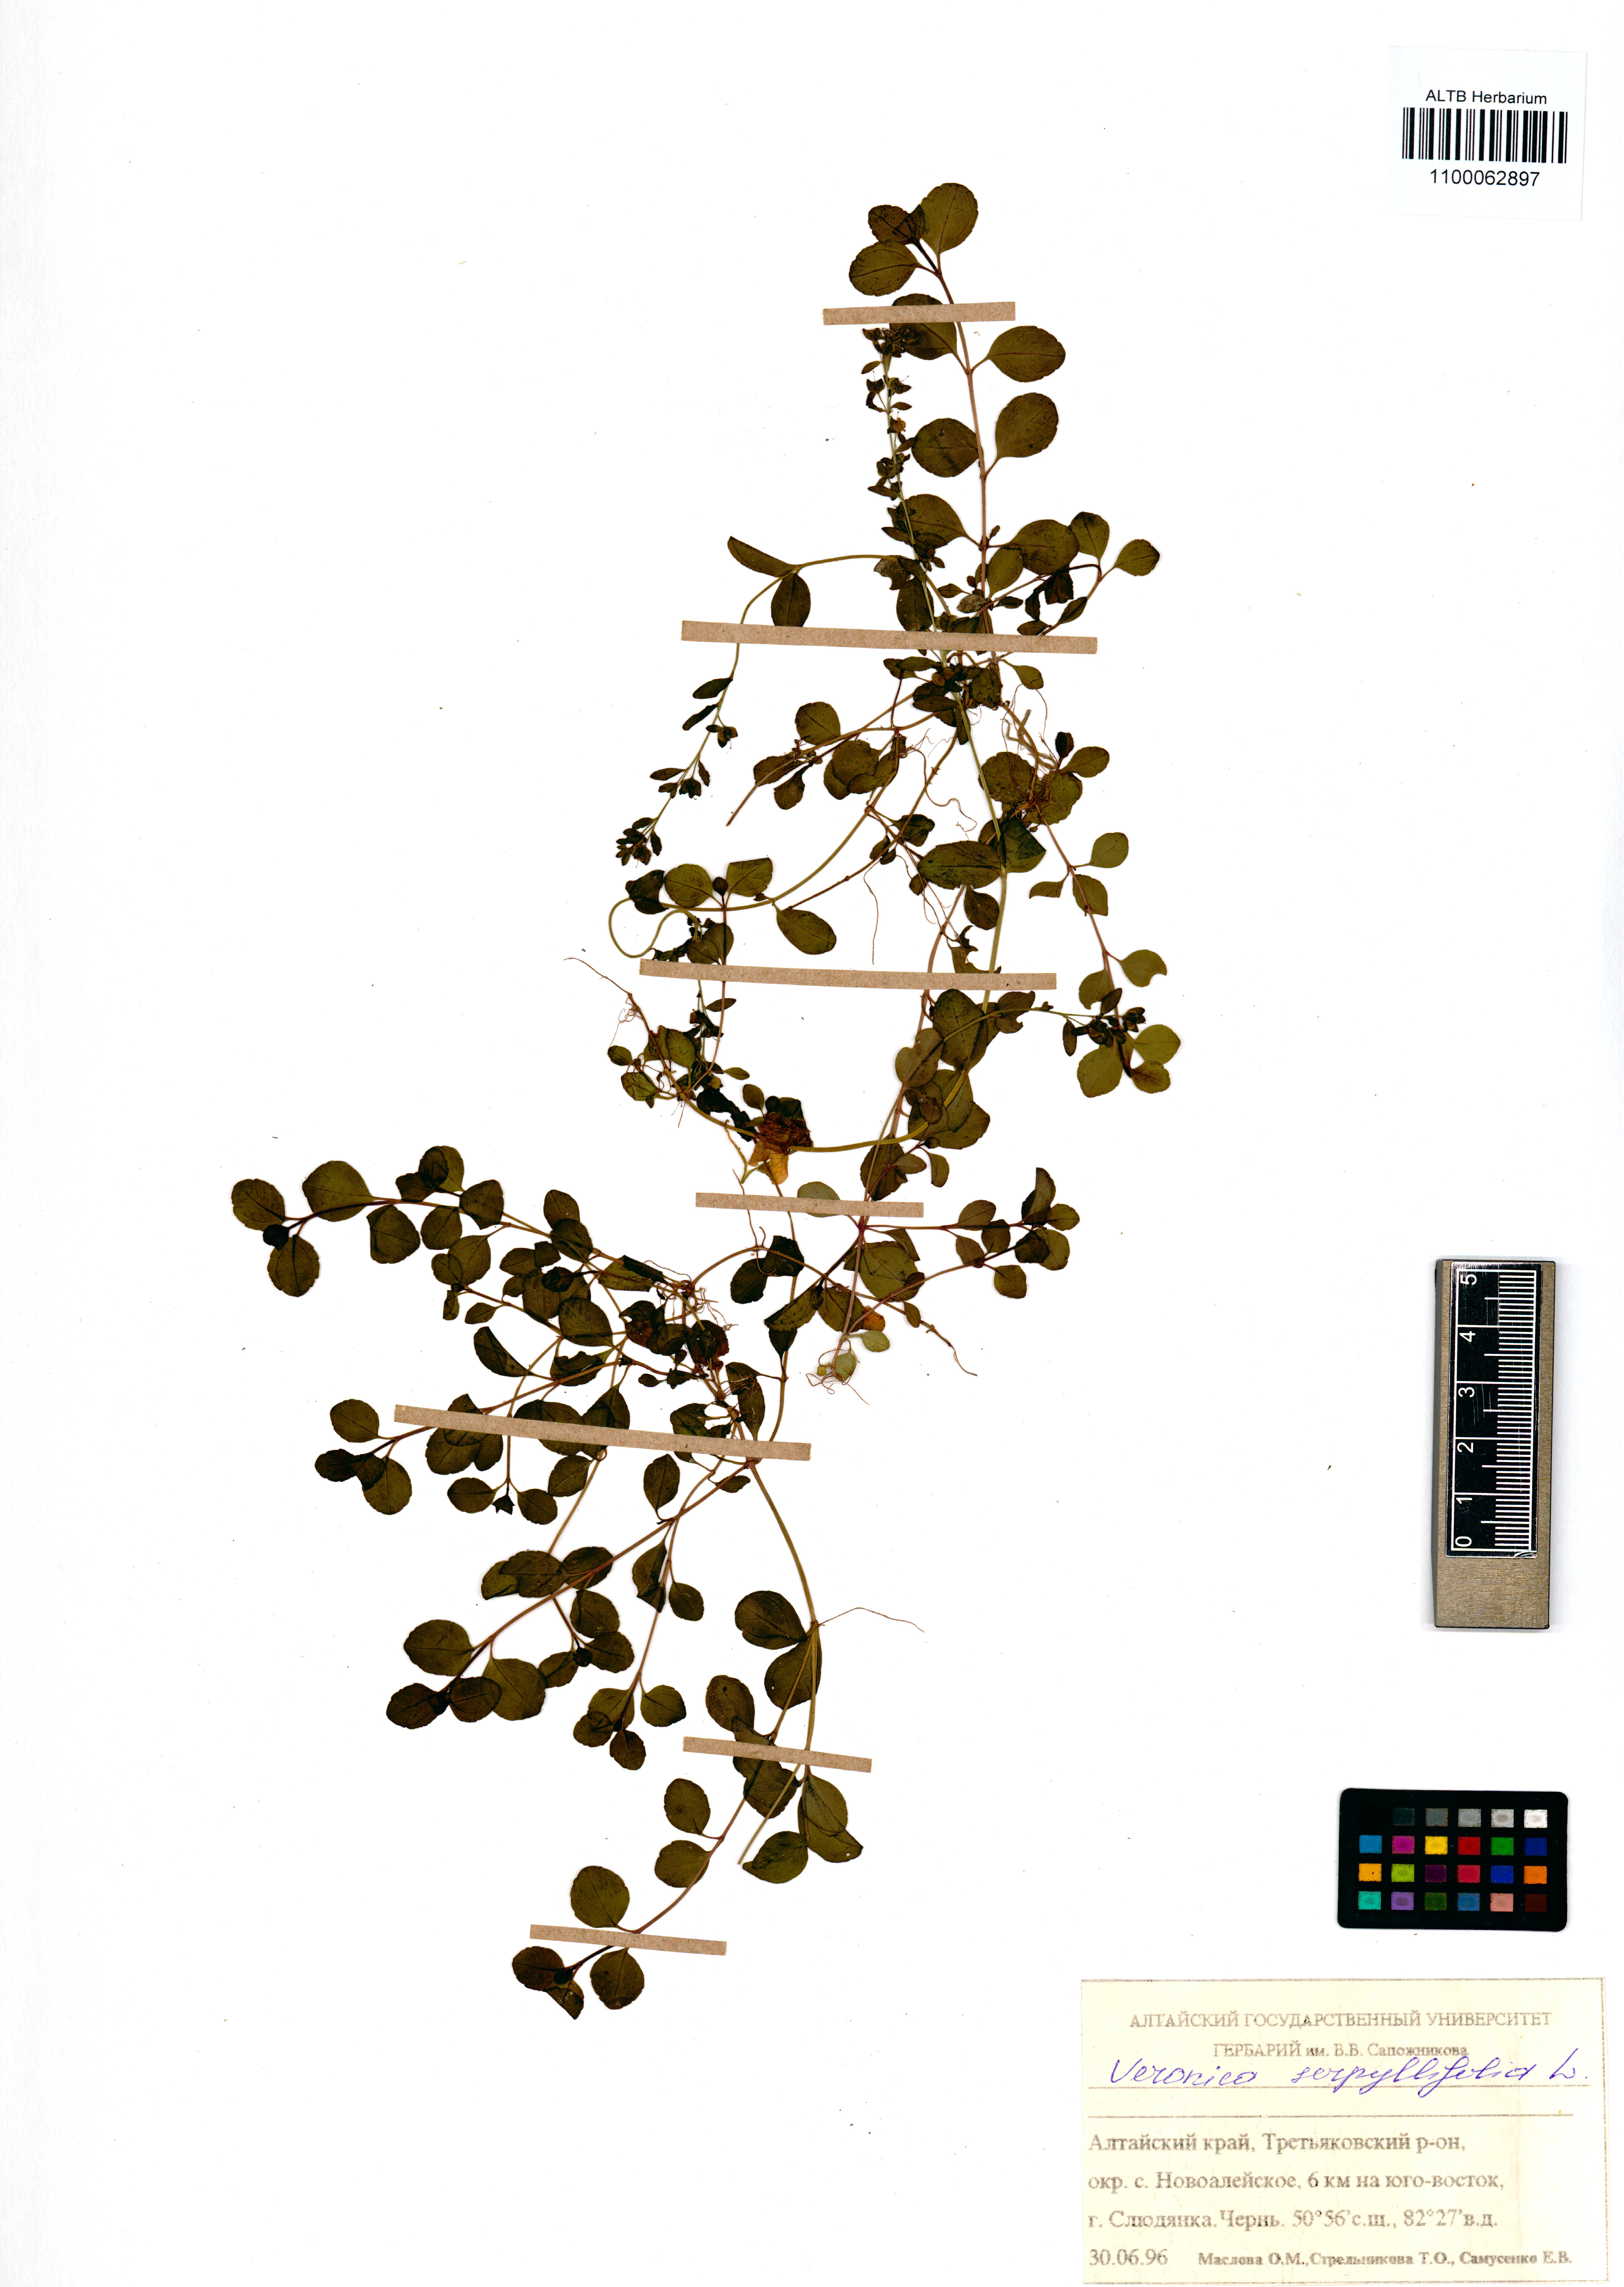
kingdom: Plantae
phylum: Tracheophyta
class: Magnoliopsida
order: Lamiales
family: Plantaginaceae
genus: Veronica
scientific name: Veronica serpyllifolia
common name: Thyme-leaved speedwell
